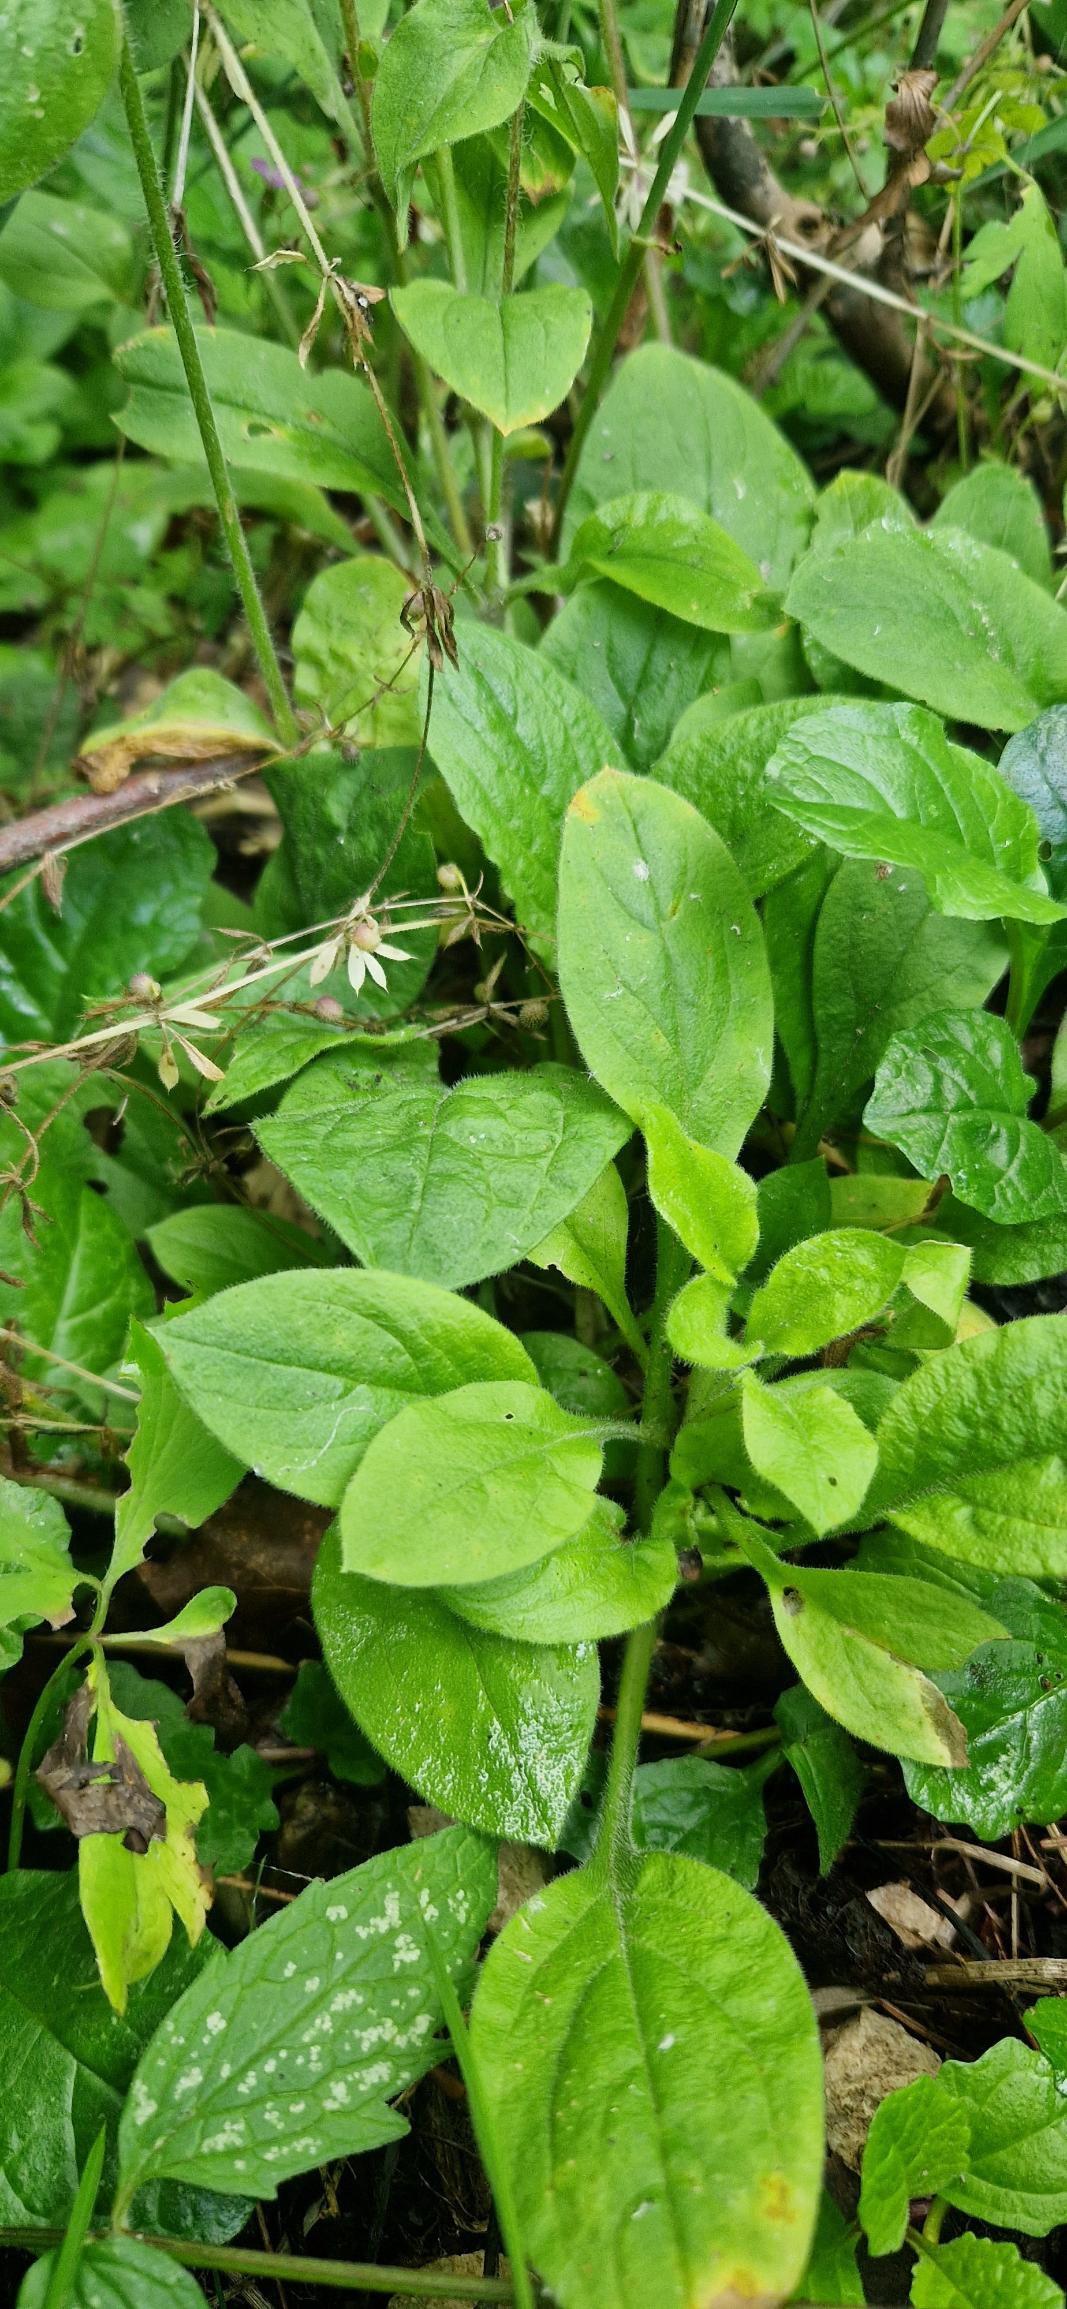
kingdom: Plantae
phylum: Tracheophyta
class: Magnoliopsida
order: Caryophyllales
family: Caryophyllaceae
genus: Silene
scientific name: Silene dioica
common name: Dagpragtstjerne
